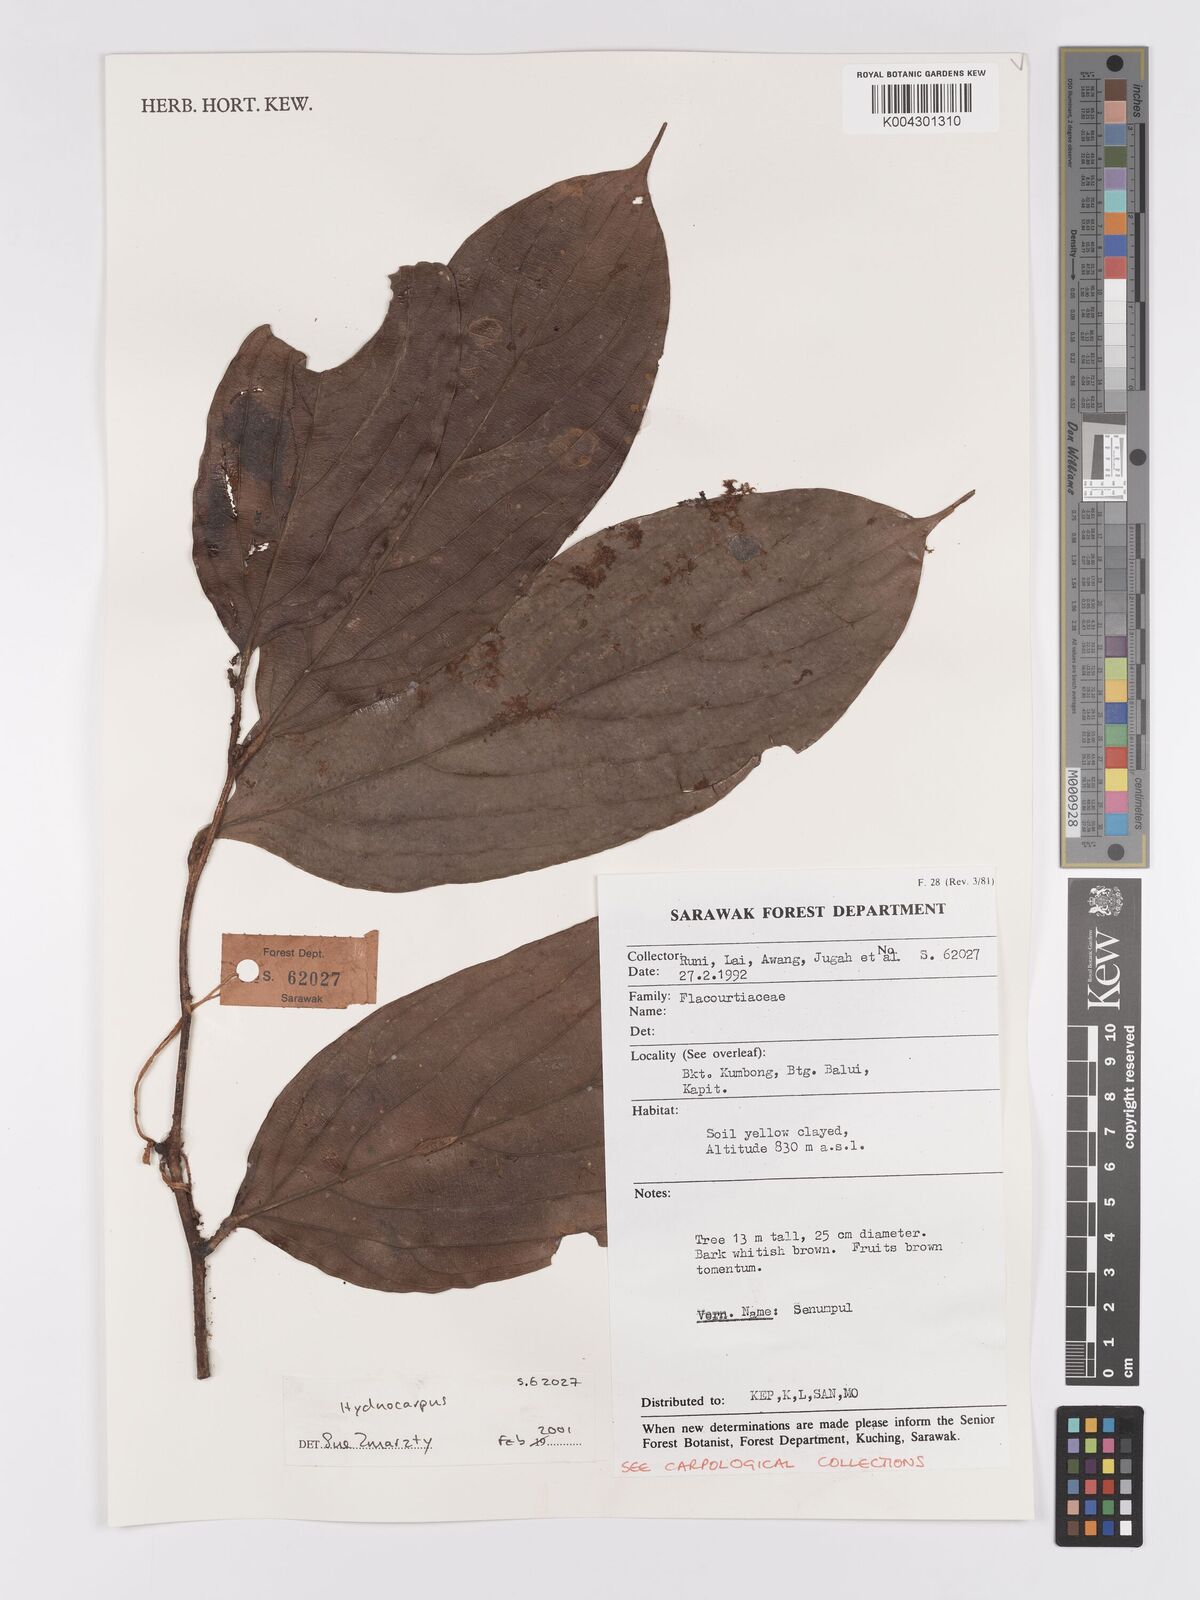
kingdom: Plantae
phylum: Tracheophyta
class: Magnoliopsida
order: Malpighiales
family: Achariaceae
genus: Hydnocarpus
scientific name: Hydnocarpus
